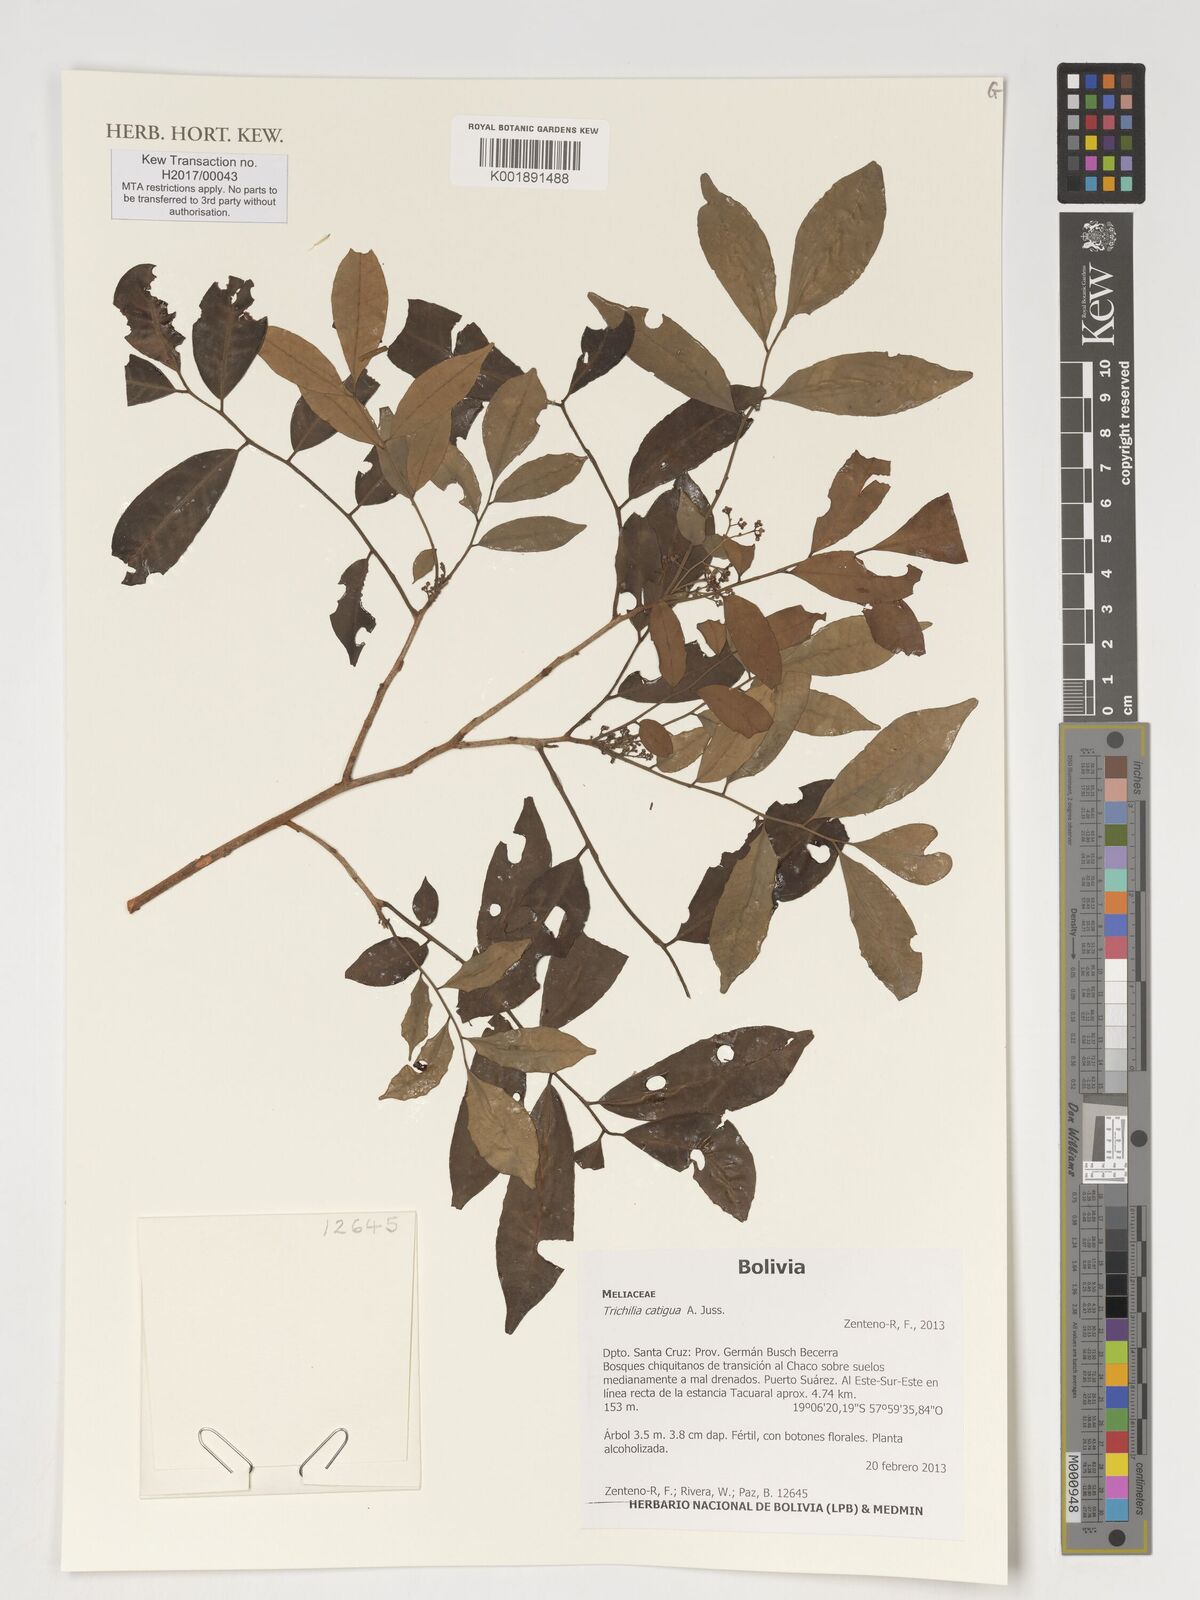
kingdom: Plantae
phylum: Tracheophyta
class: Magnoliopsida
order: Sapindales
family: Meliaceae
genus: Trichilia
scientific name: Trichilia catigua
